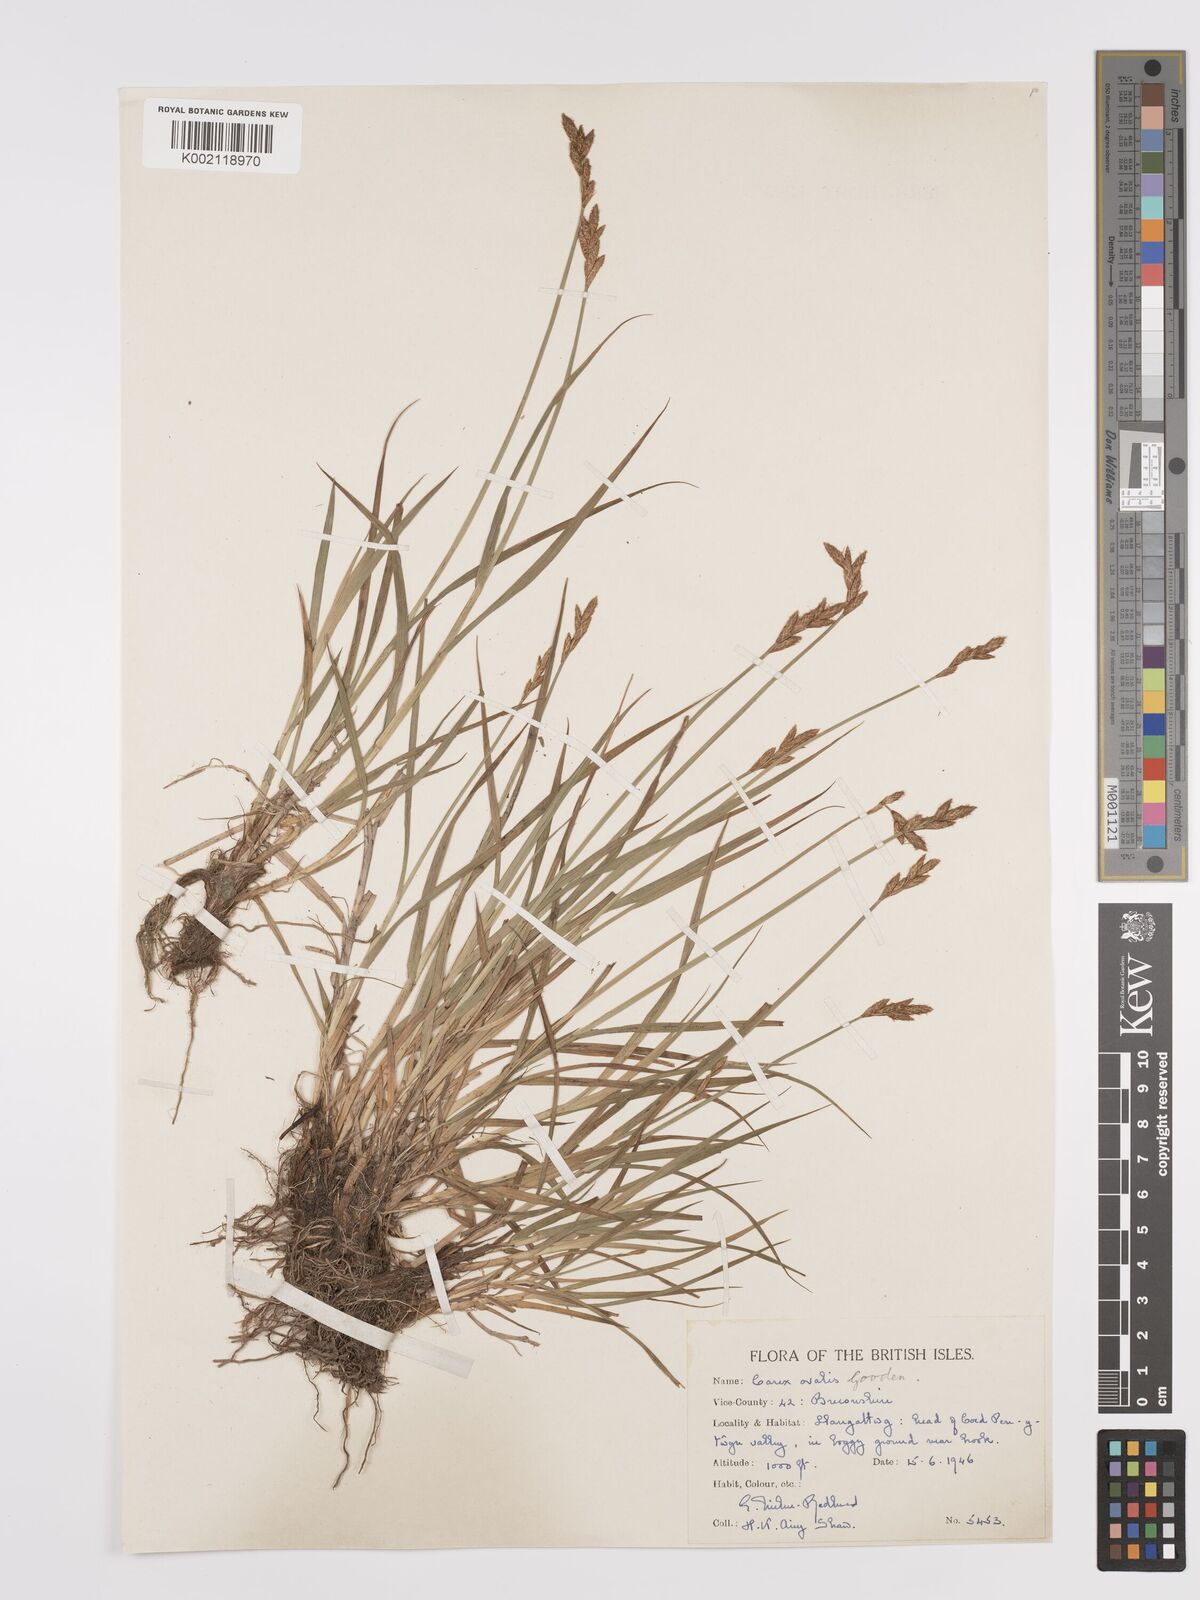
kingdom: Plantae
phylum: Tracheophyta
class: Liliopsida
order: Poales
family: Cyperaceae
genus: Carex
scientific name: Carex leporina
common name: Oval sedge
